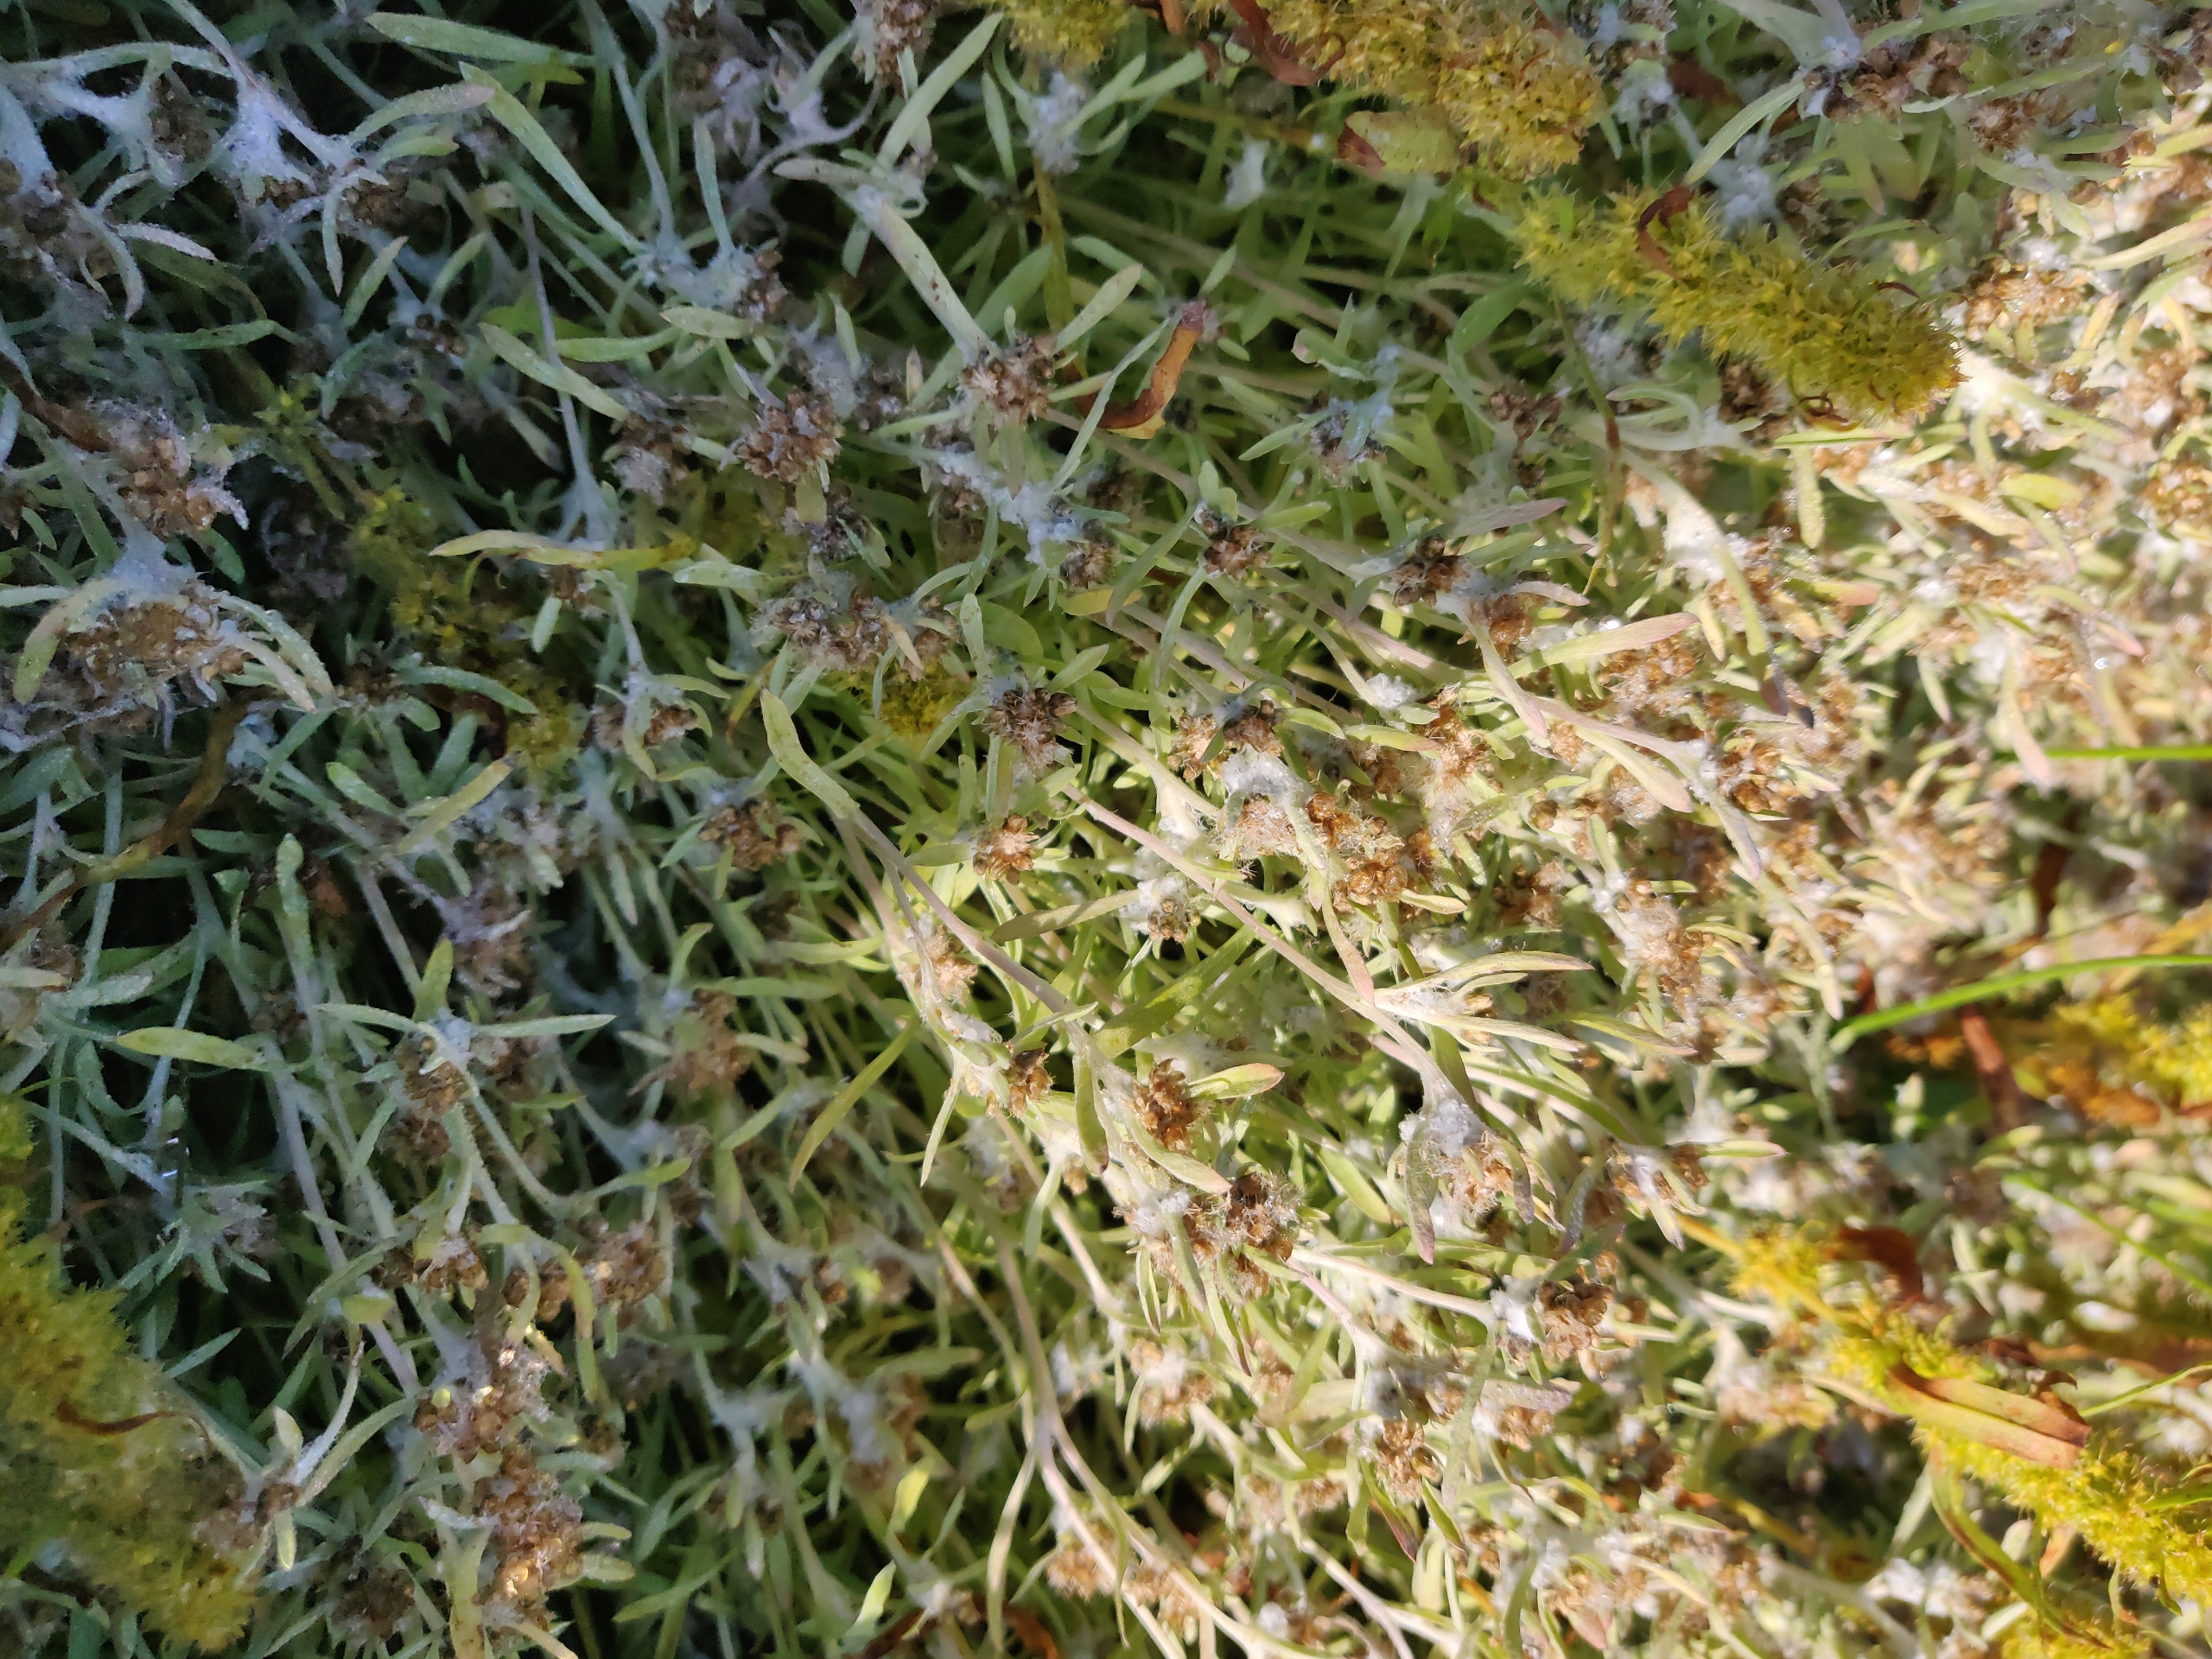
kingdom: Plantae
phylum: Tracheophyta
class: Magnoliopsida
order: Asterales
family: Asteraceae
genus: Gnaphalium
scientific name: Gnaphalium uliginosum
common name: Sump-evighedsblomst
